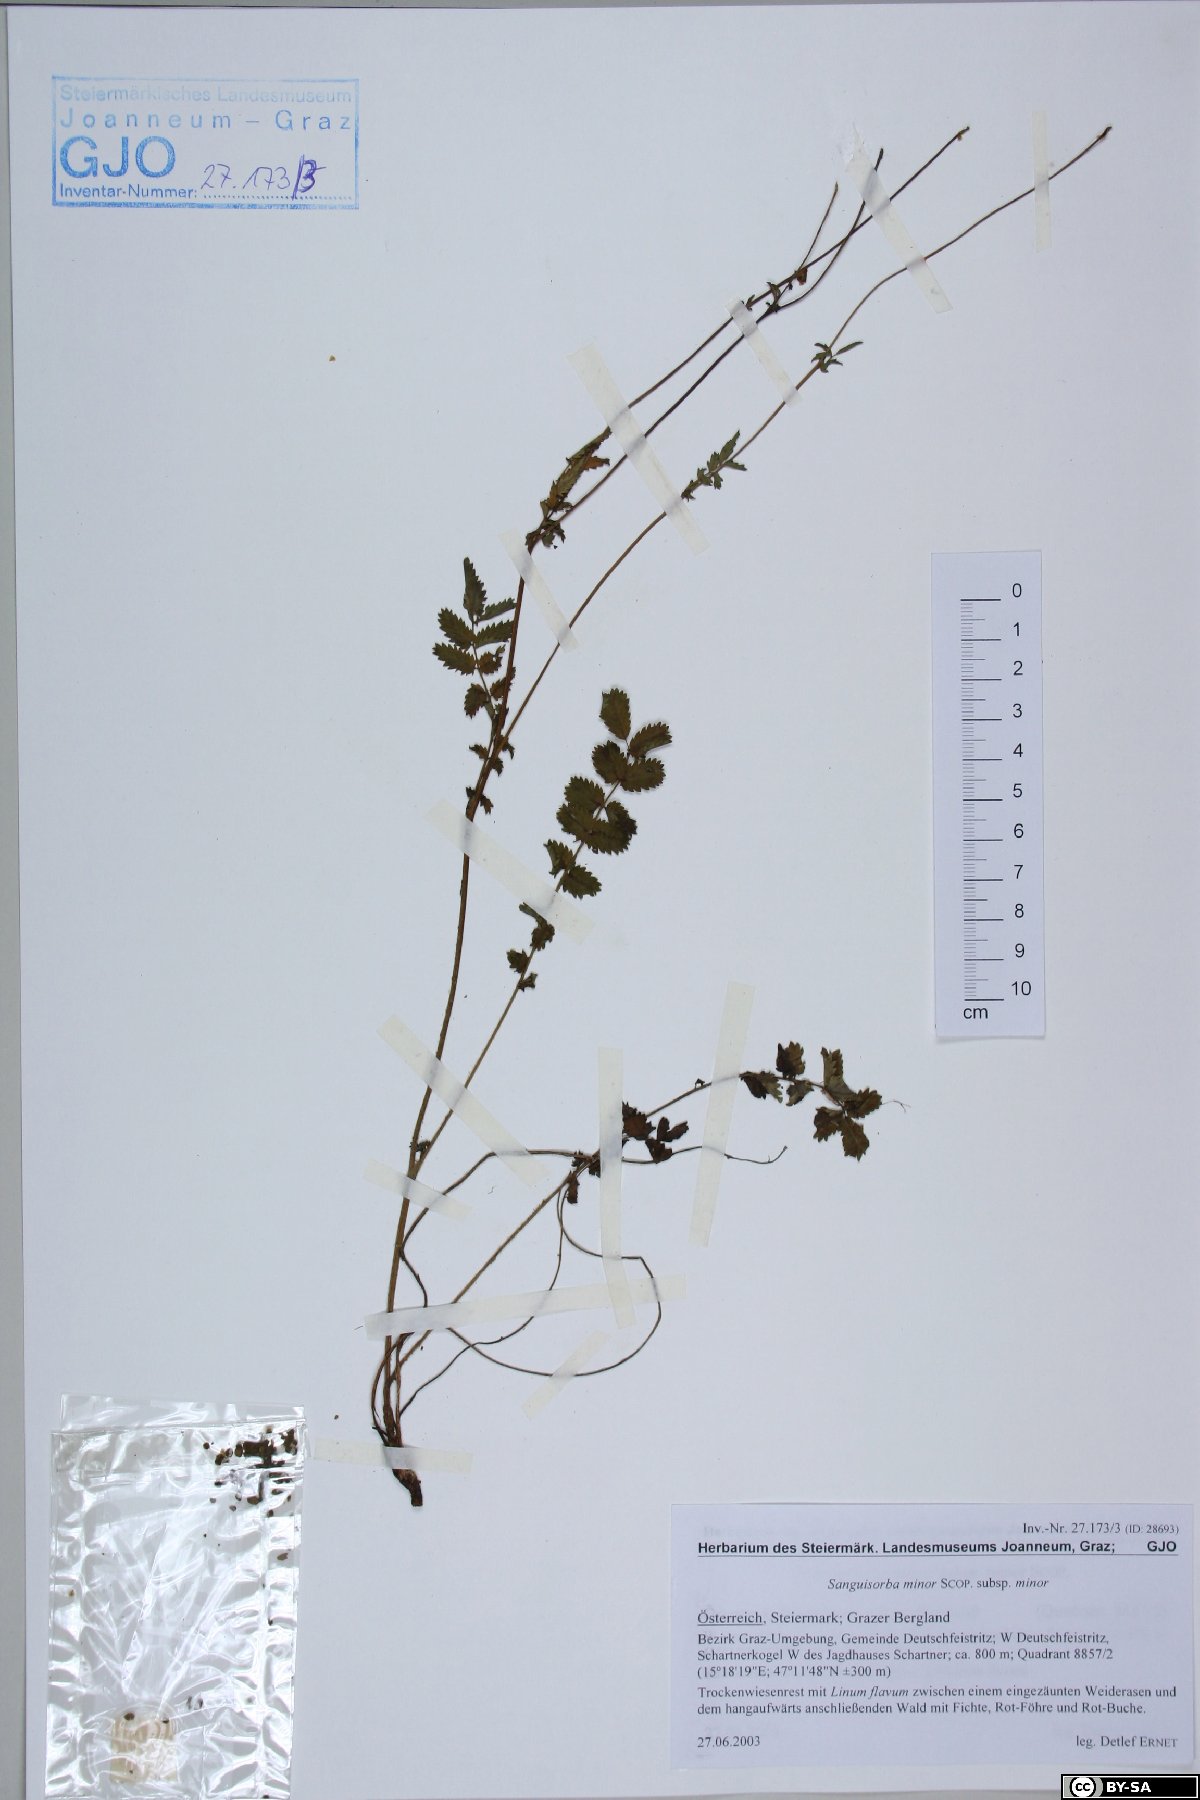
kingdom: Plantae
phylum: Tracheophyta
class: Magnoliopsida
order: Rosales
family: Rosaceae
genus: Poterium
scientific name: Poterium sanguisorba
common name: Salad burnet
